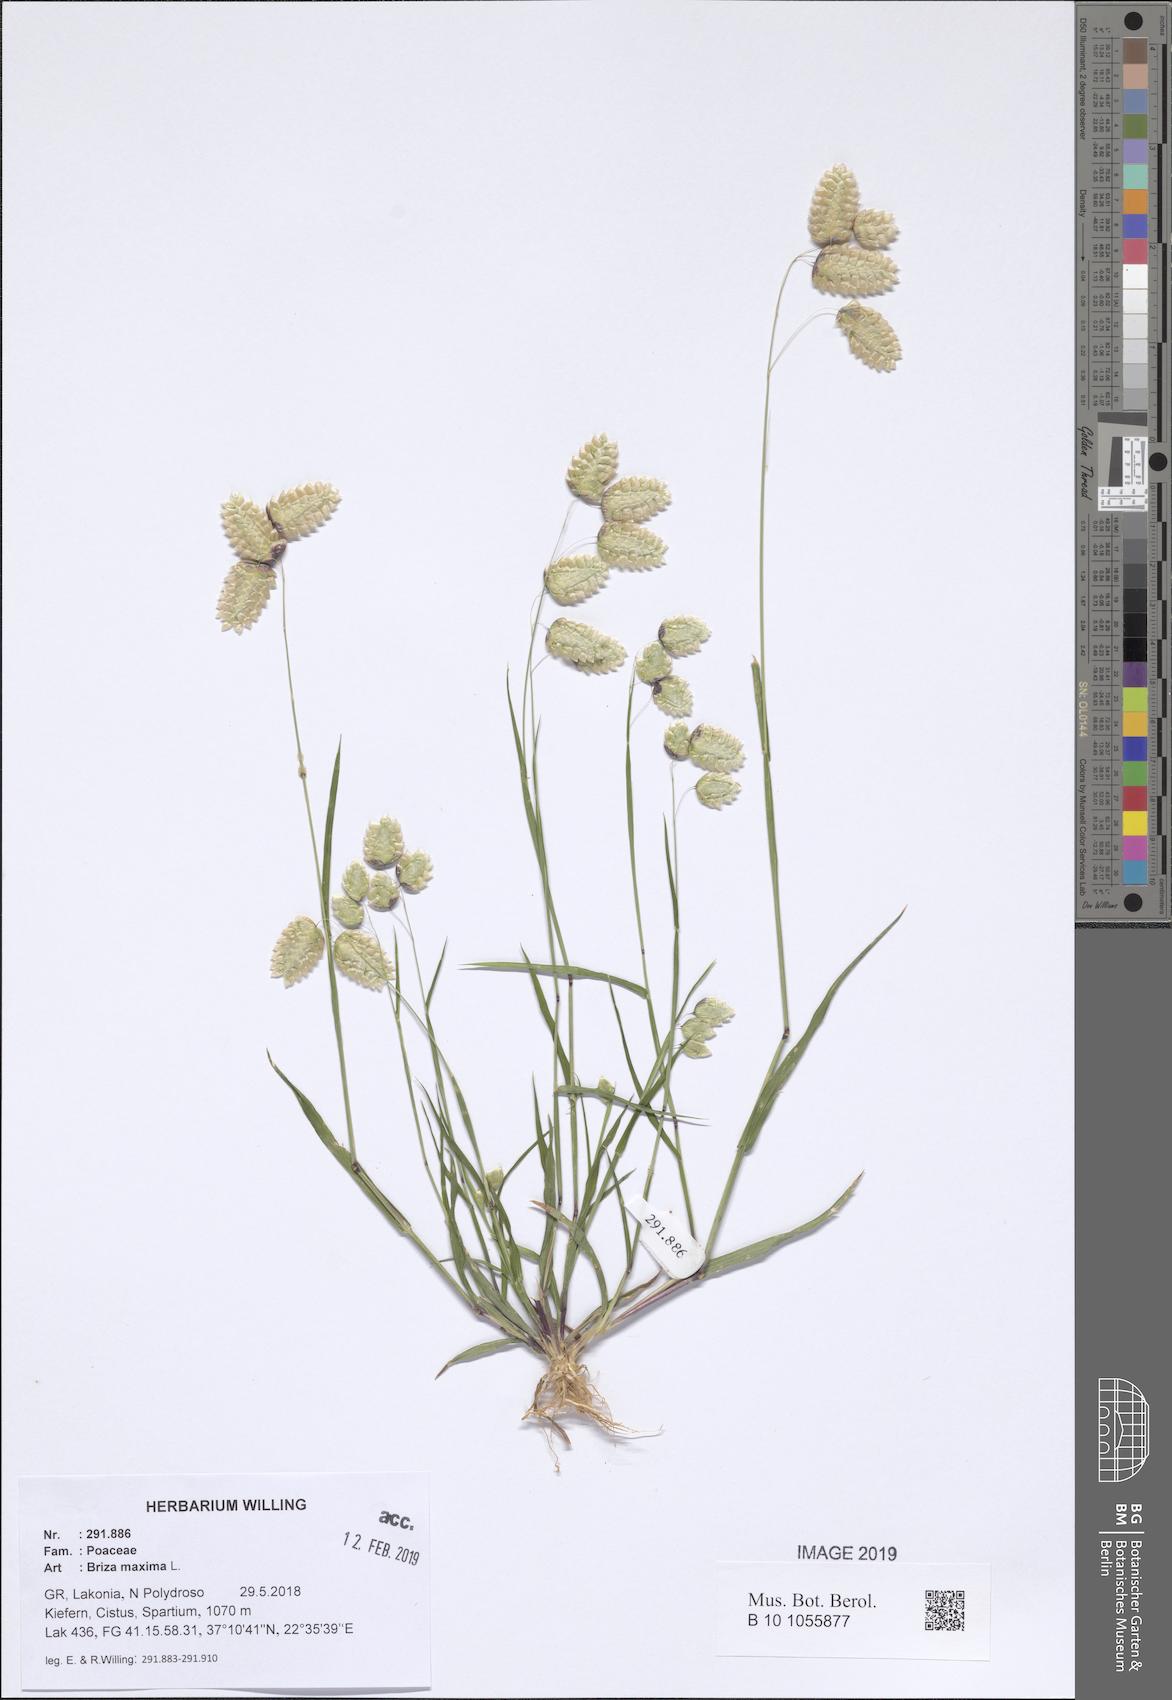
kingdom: Plantae
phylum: Tracheophyta
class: Liliopsida
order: Poales
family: Poaceae
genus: Briza
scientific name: Briza maxima
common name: Big quakinggrass
